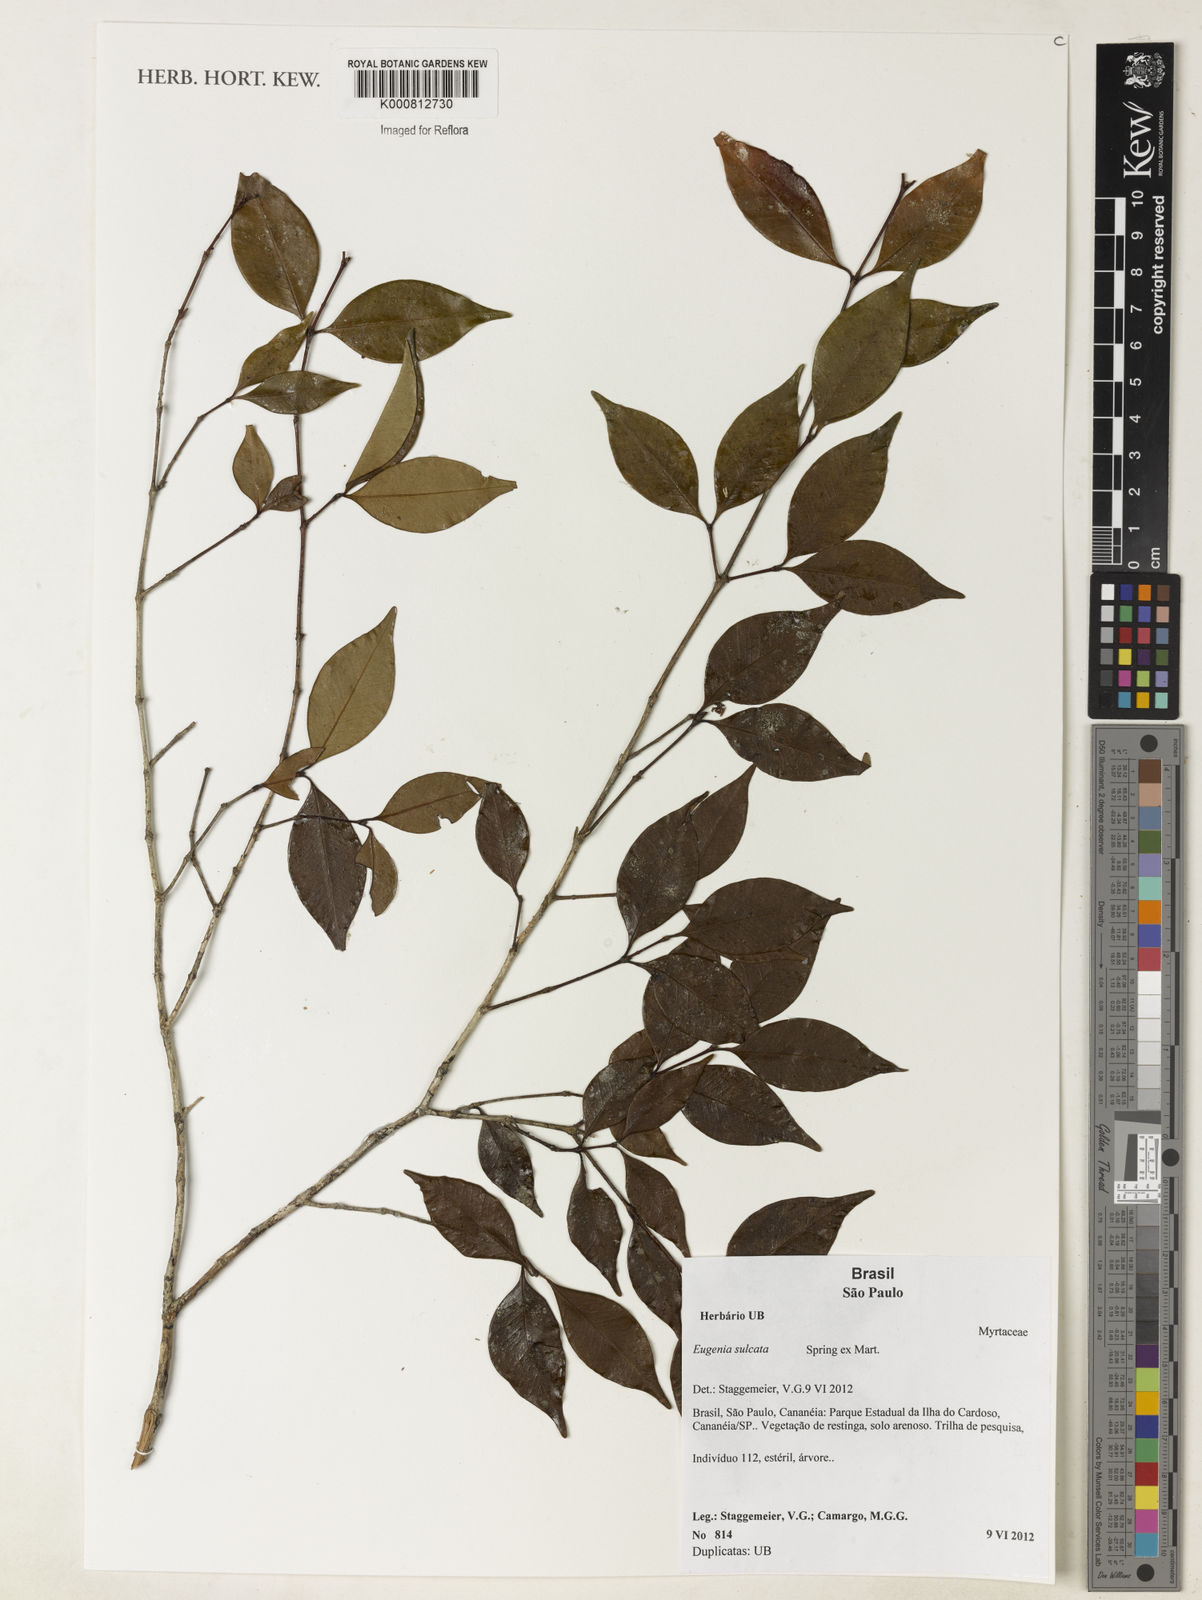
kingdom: Plantae
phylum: Tracheophyta
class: Magnoliopsida
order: Myrtales
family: Myrtaceae
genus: Eugenia
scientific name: Eugenia sulcata
